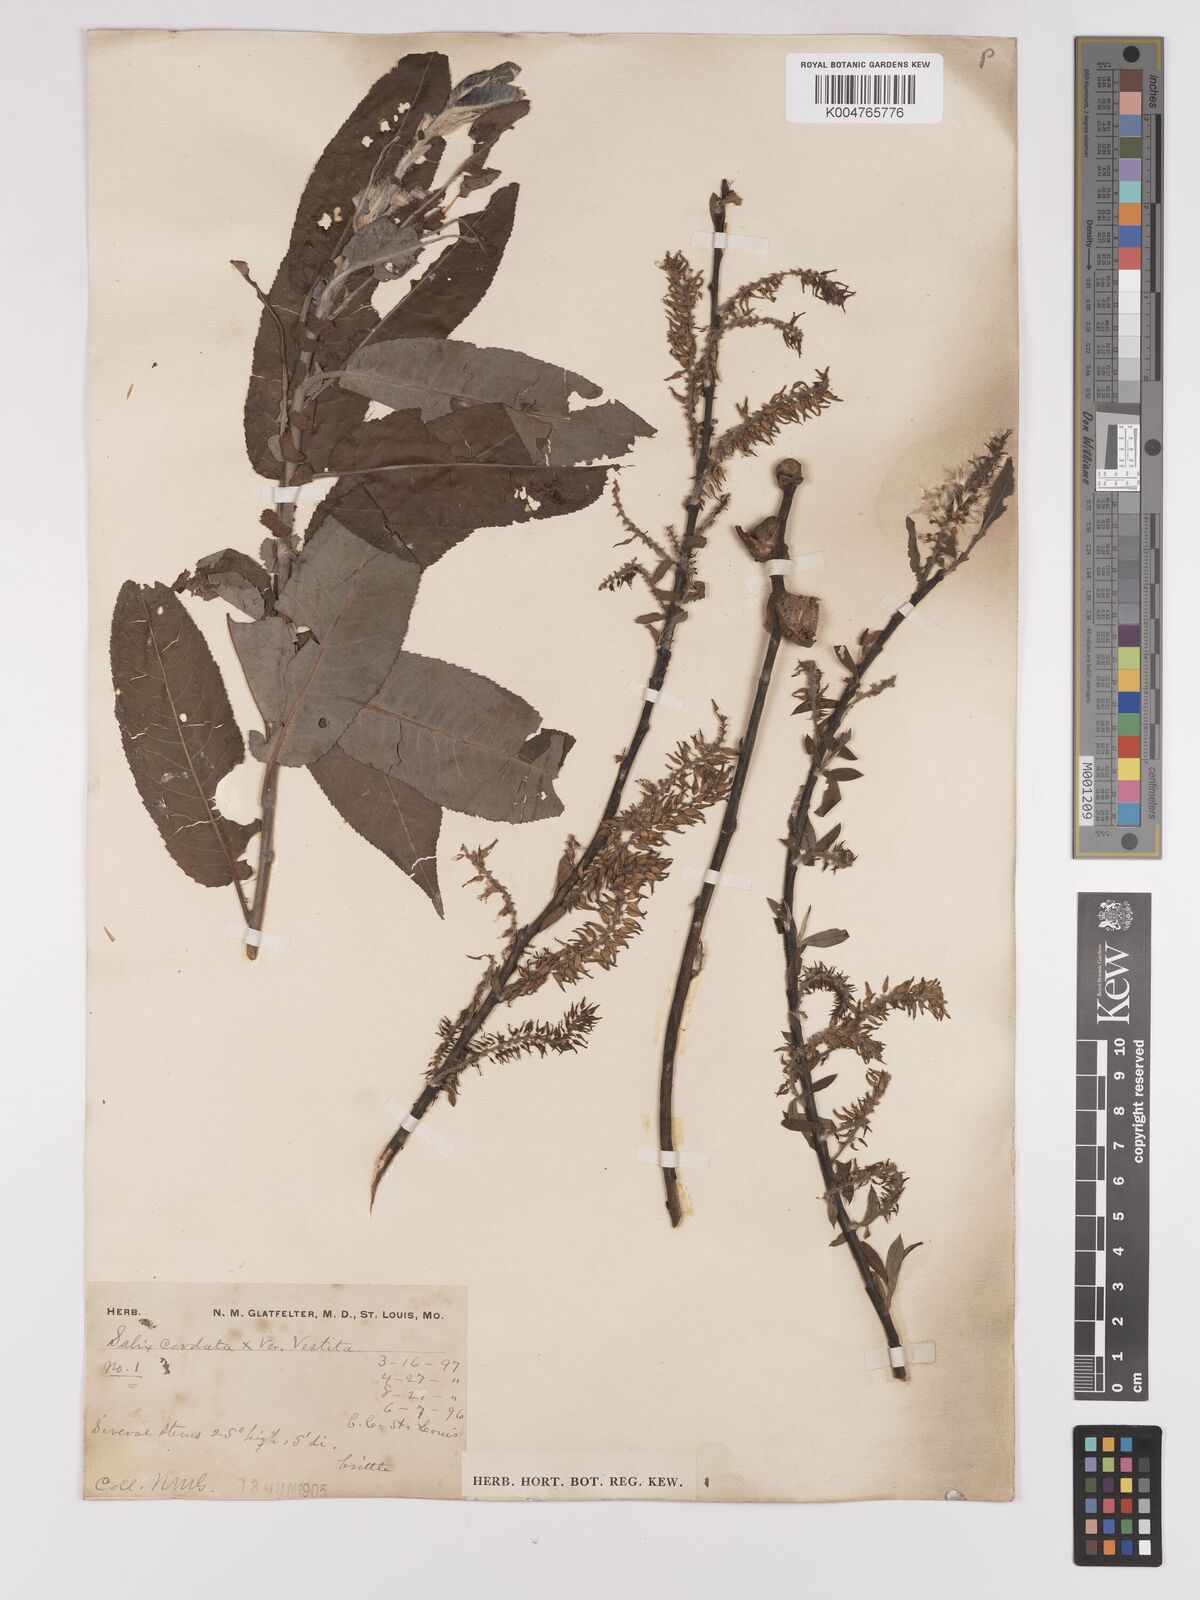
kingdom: Plantae
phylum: Tracheophyta
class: Magnoliopsida
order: Malpighiales
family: Salicaceae
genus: Salix
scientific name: Salix cordata
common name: Heart-leaf willow
